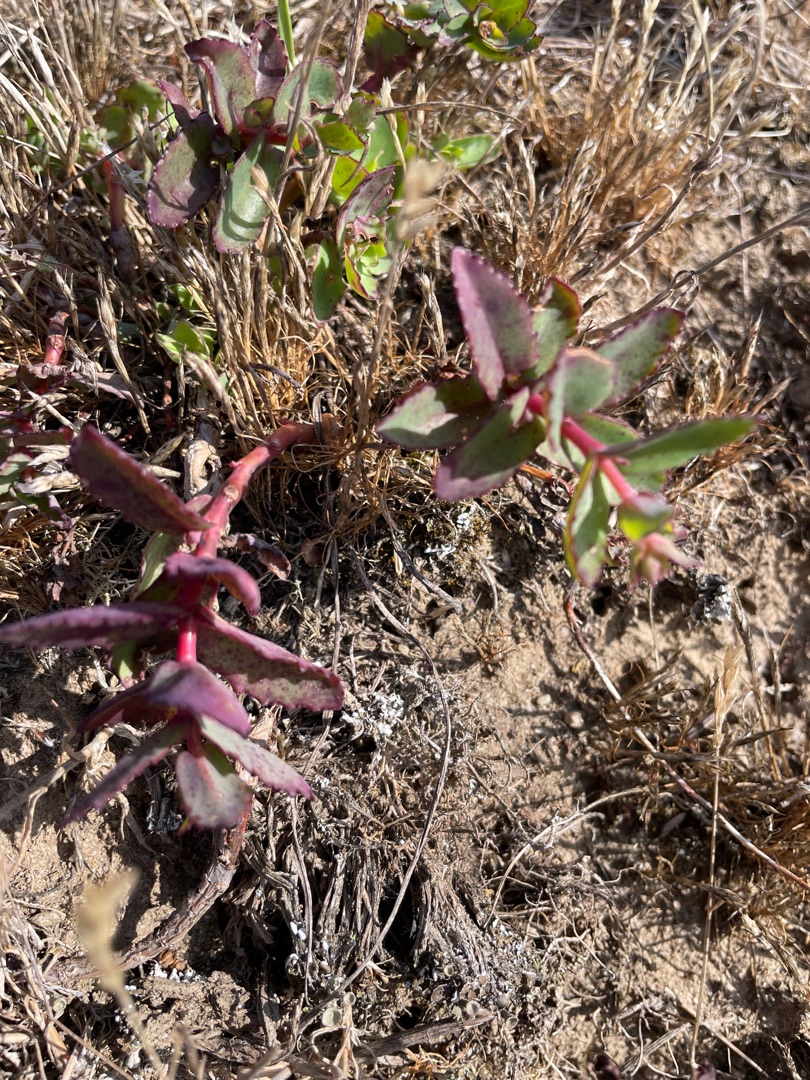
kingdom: Plantae
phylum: Tracheophyta
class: Magnoliopsida
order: Saxifragales
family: Crassulaceae
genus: Hylotelephium
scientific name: Hylotelephium maximum
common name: Almindelig sankthansurt
